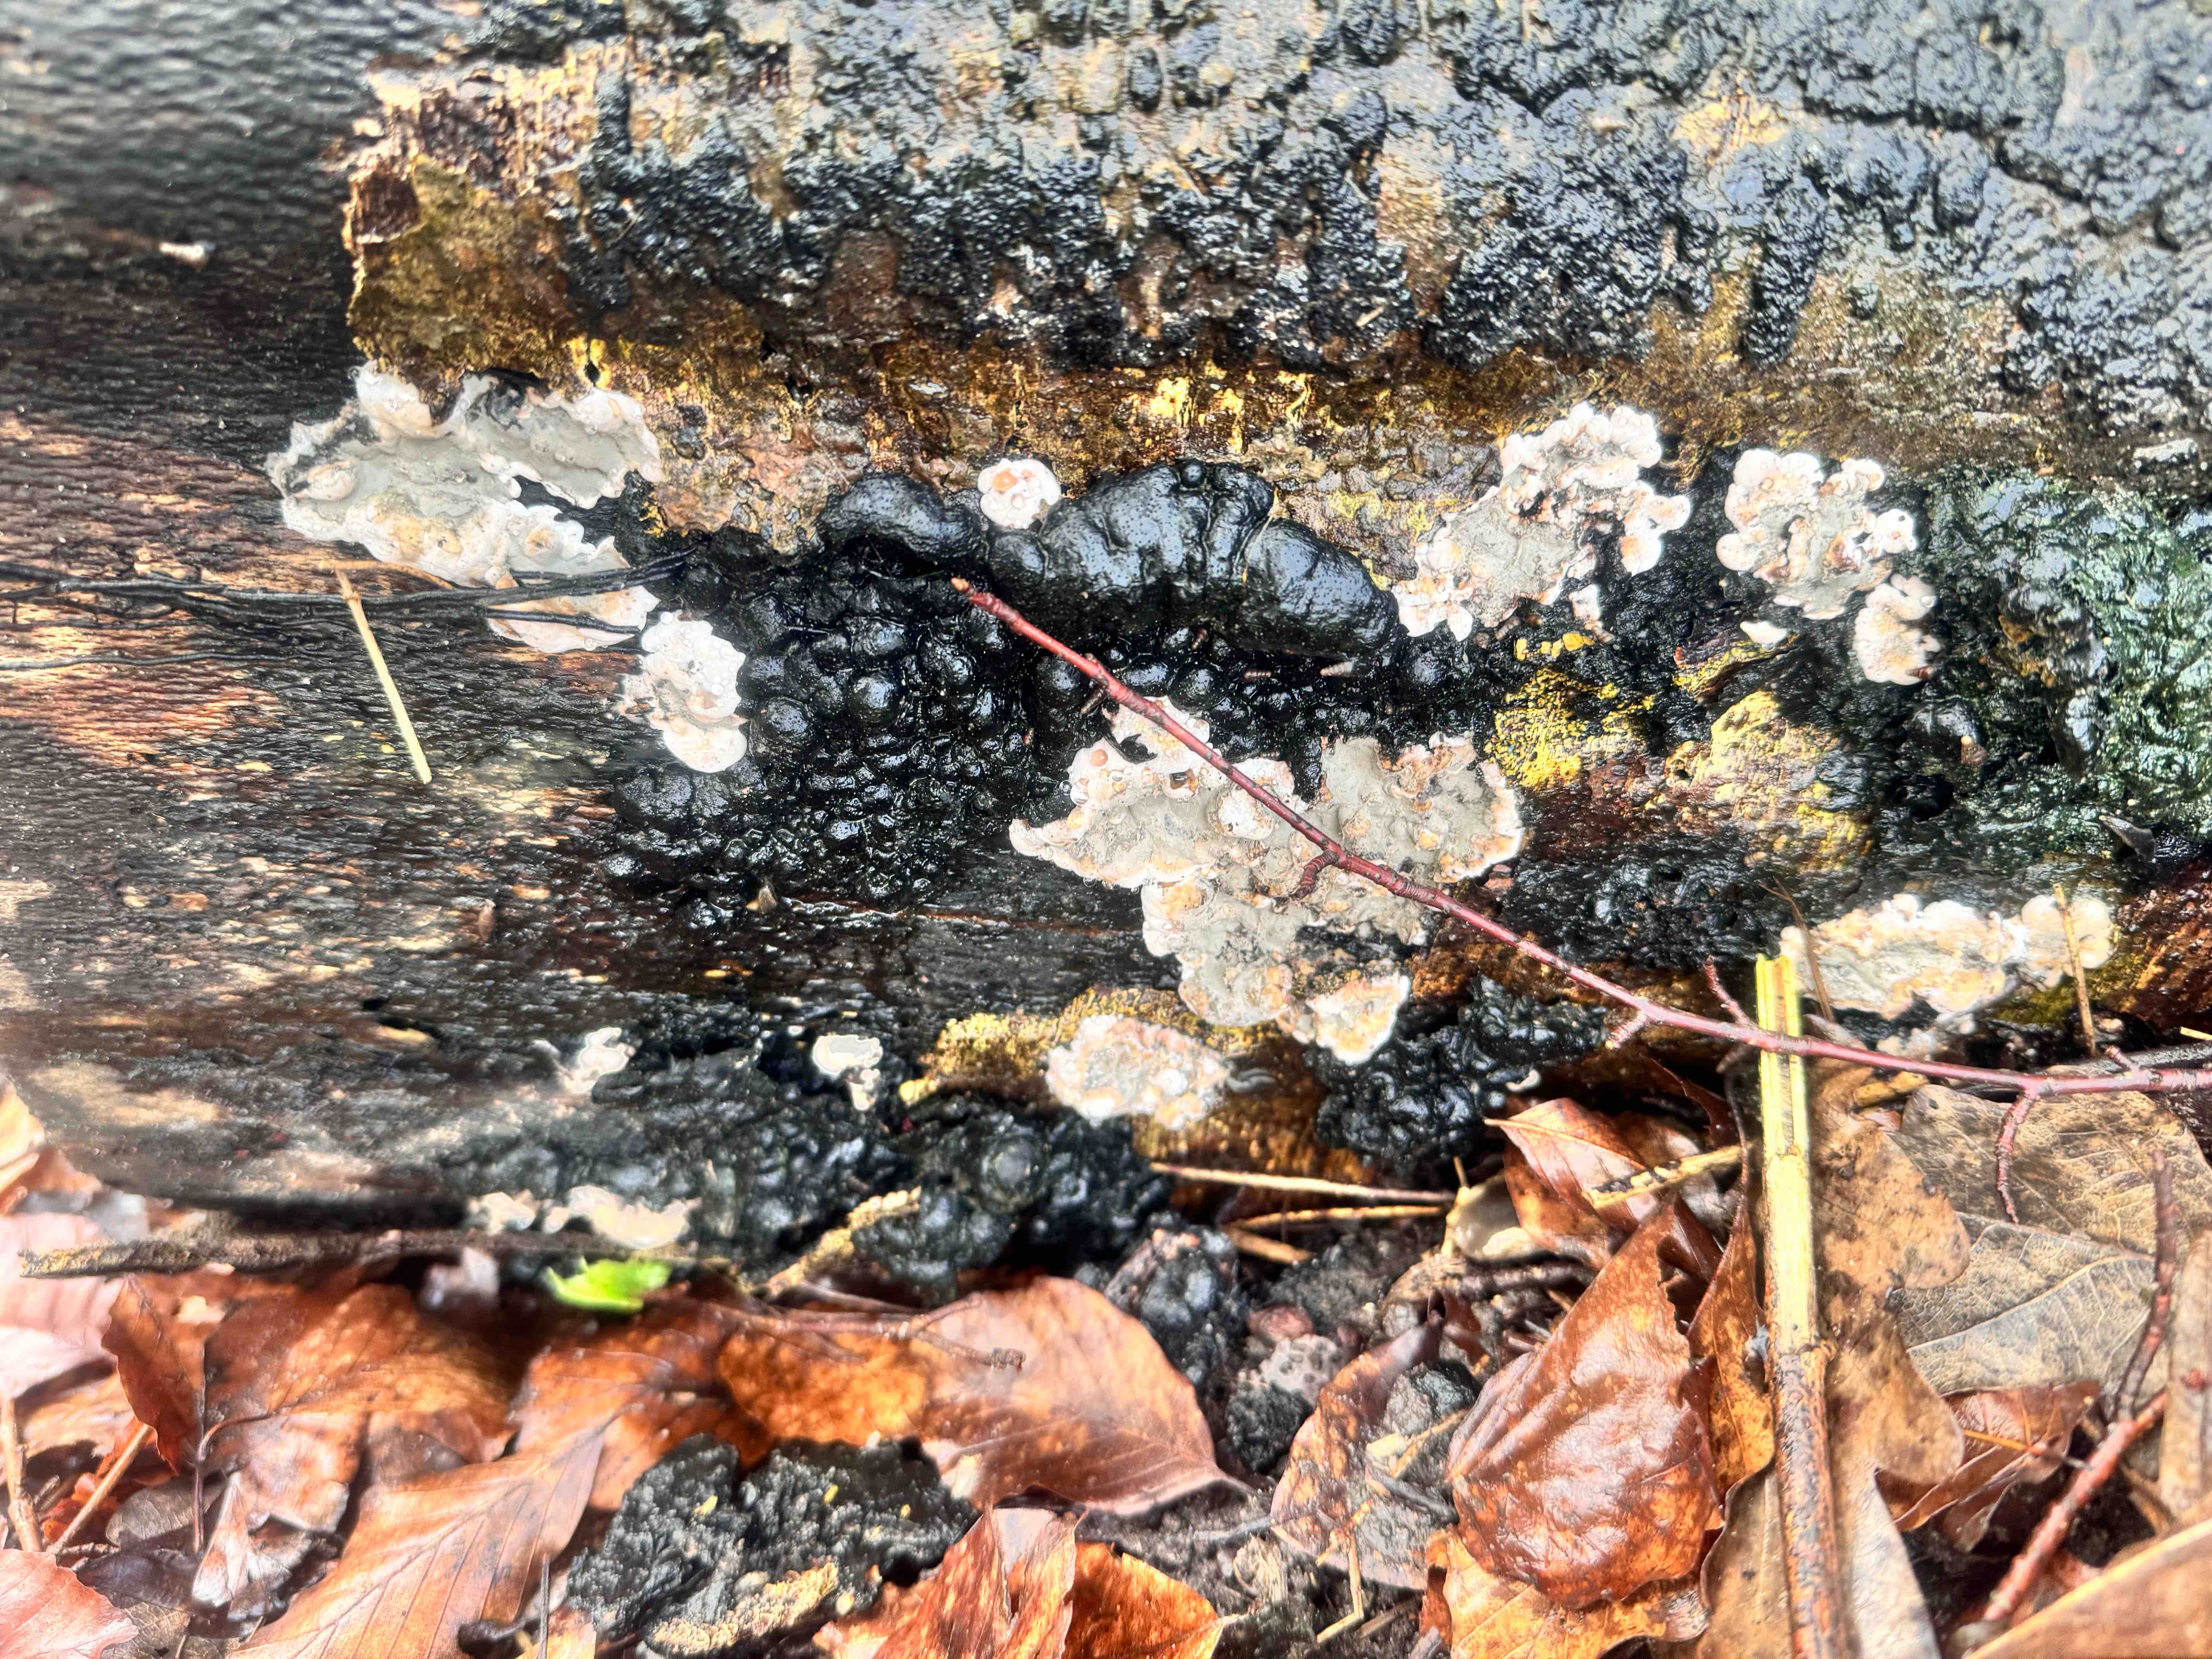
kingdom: Fungi
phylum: Ascomycota
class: Sordariomycetes
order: Xylariales
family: Xylariaceae
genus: Kretzschmaria
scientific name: Kretzschmaria deusta
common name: stor kulsvamp
